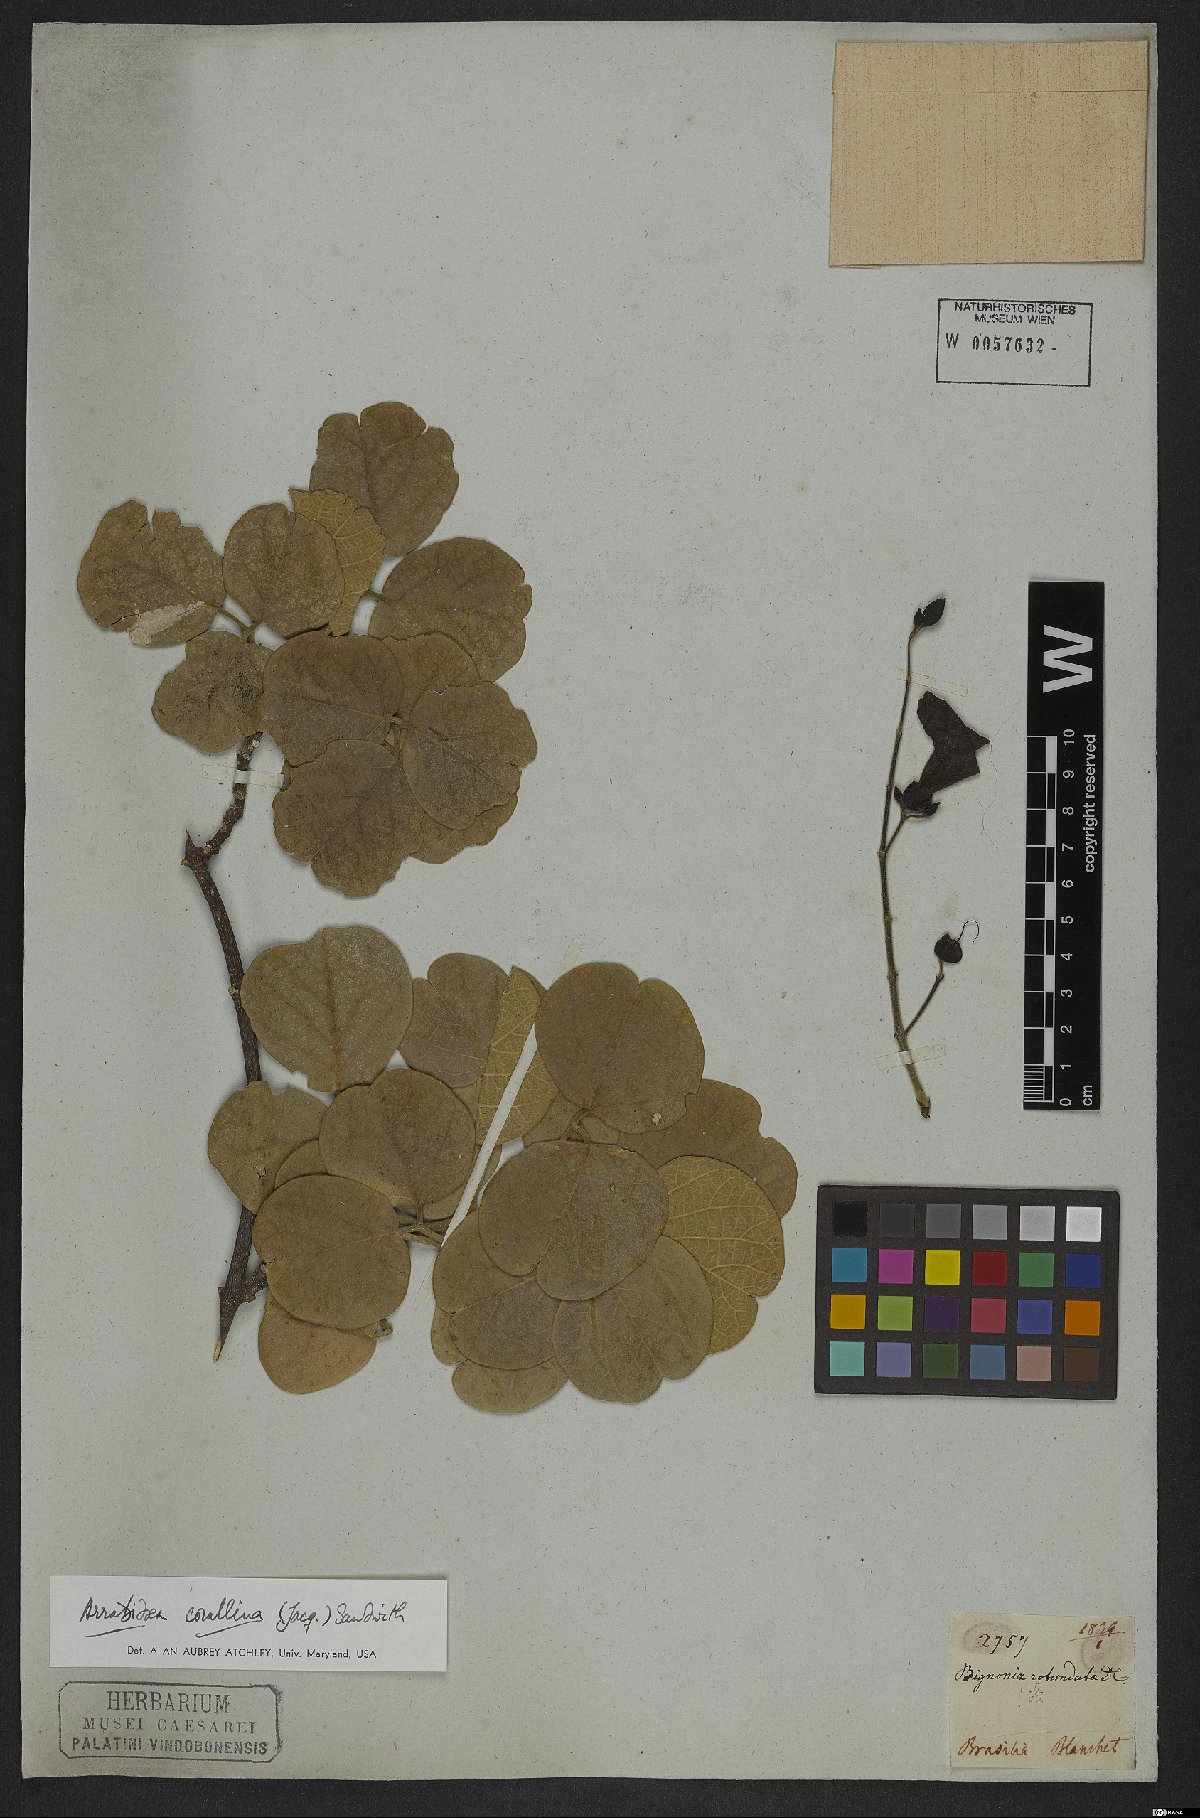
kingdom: Plantae
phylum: Tracheophyta
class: Magnoliopsida
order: Lamiales
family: Bignoniaceae
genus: Tanaecium
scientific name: Tanaecium dichotomum
